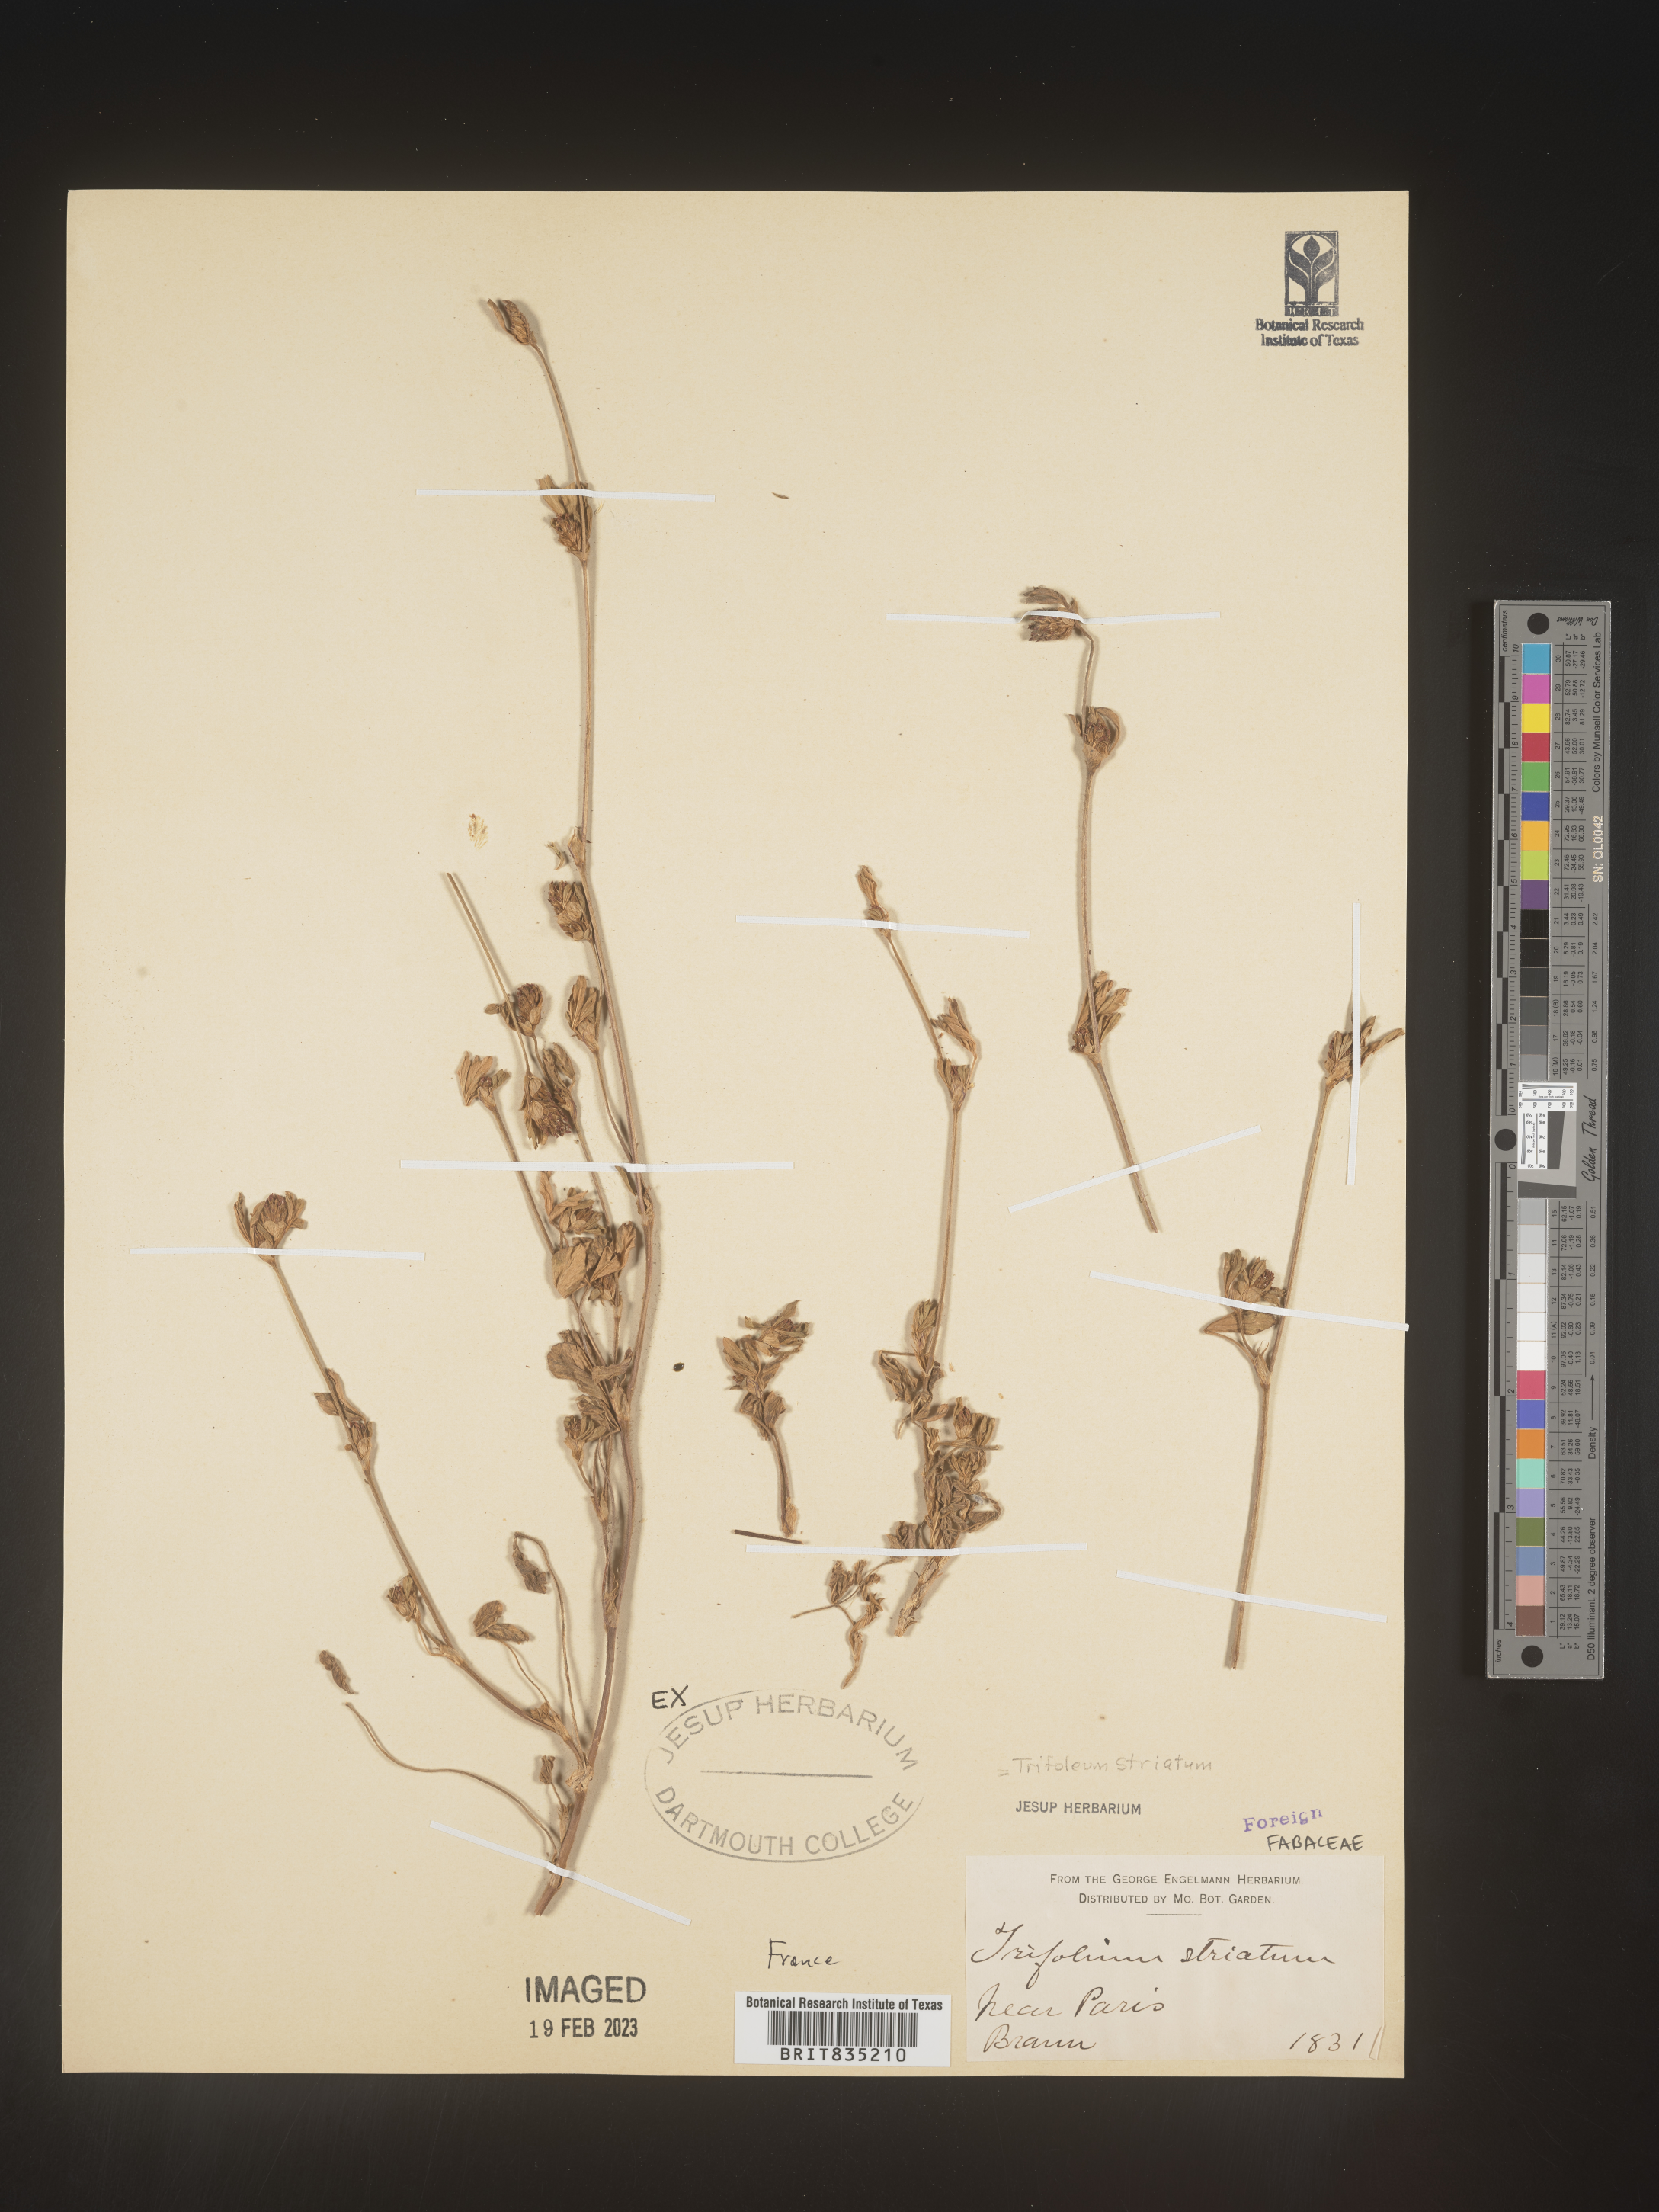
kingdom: Plantae
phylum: Tracheophyta
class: Magnoliopsida
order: Fabales
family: Fabaceae
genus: Trifolium
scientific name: Trifolium
